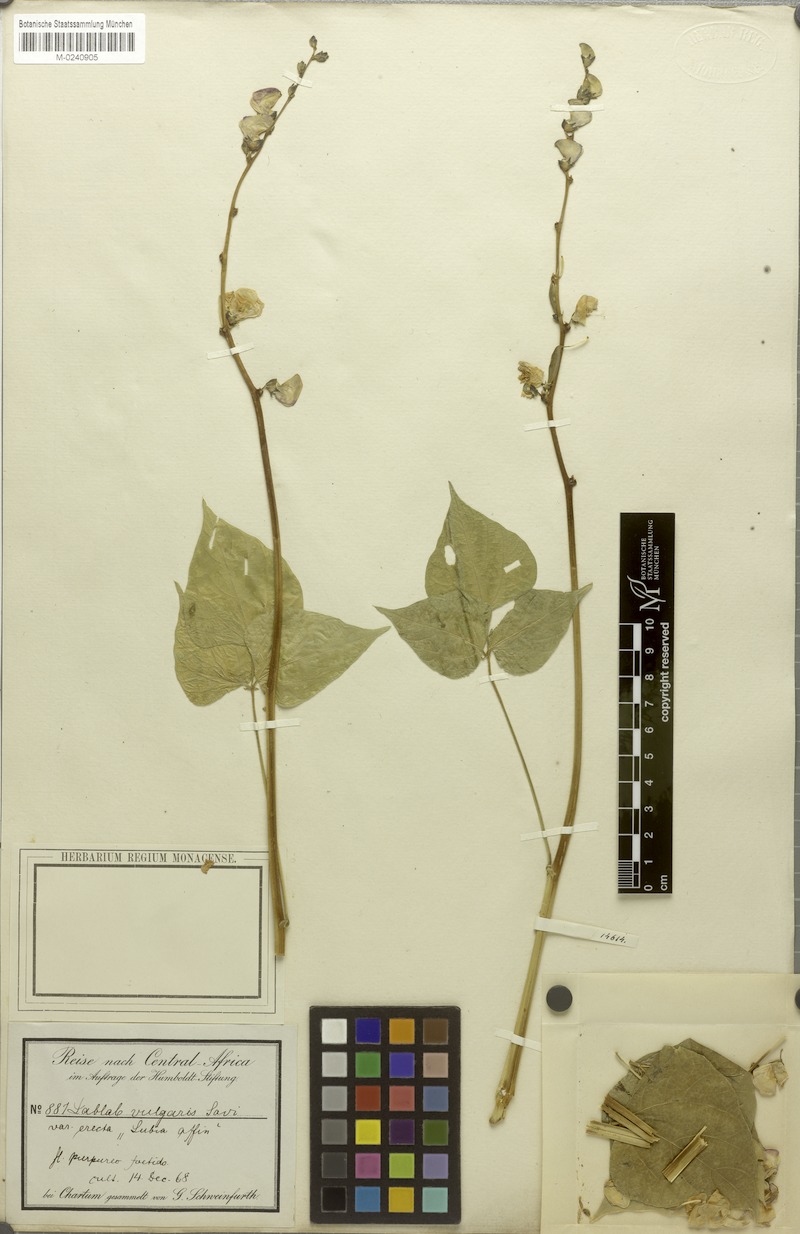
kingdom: Plantae
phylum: Tracheophyta
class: Magnoliopsida
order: Fabales
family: Fabaceae
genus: Lablab
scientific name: Lablab purpureus
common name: Lablab-bean
